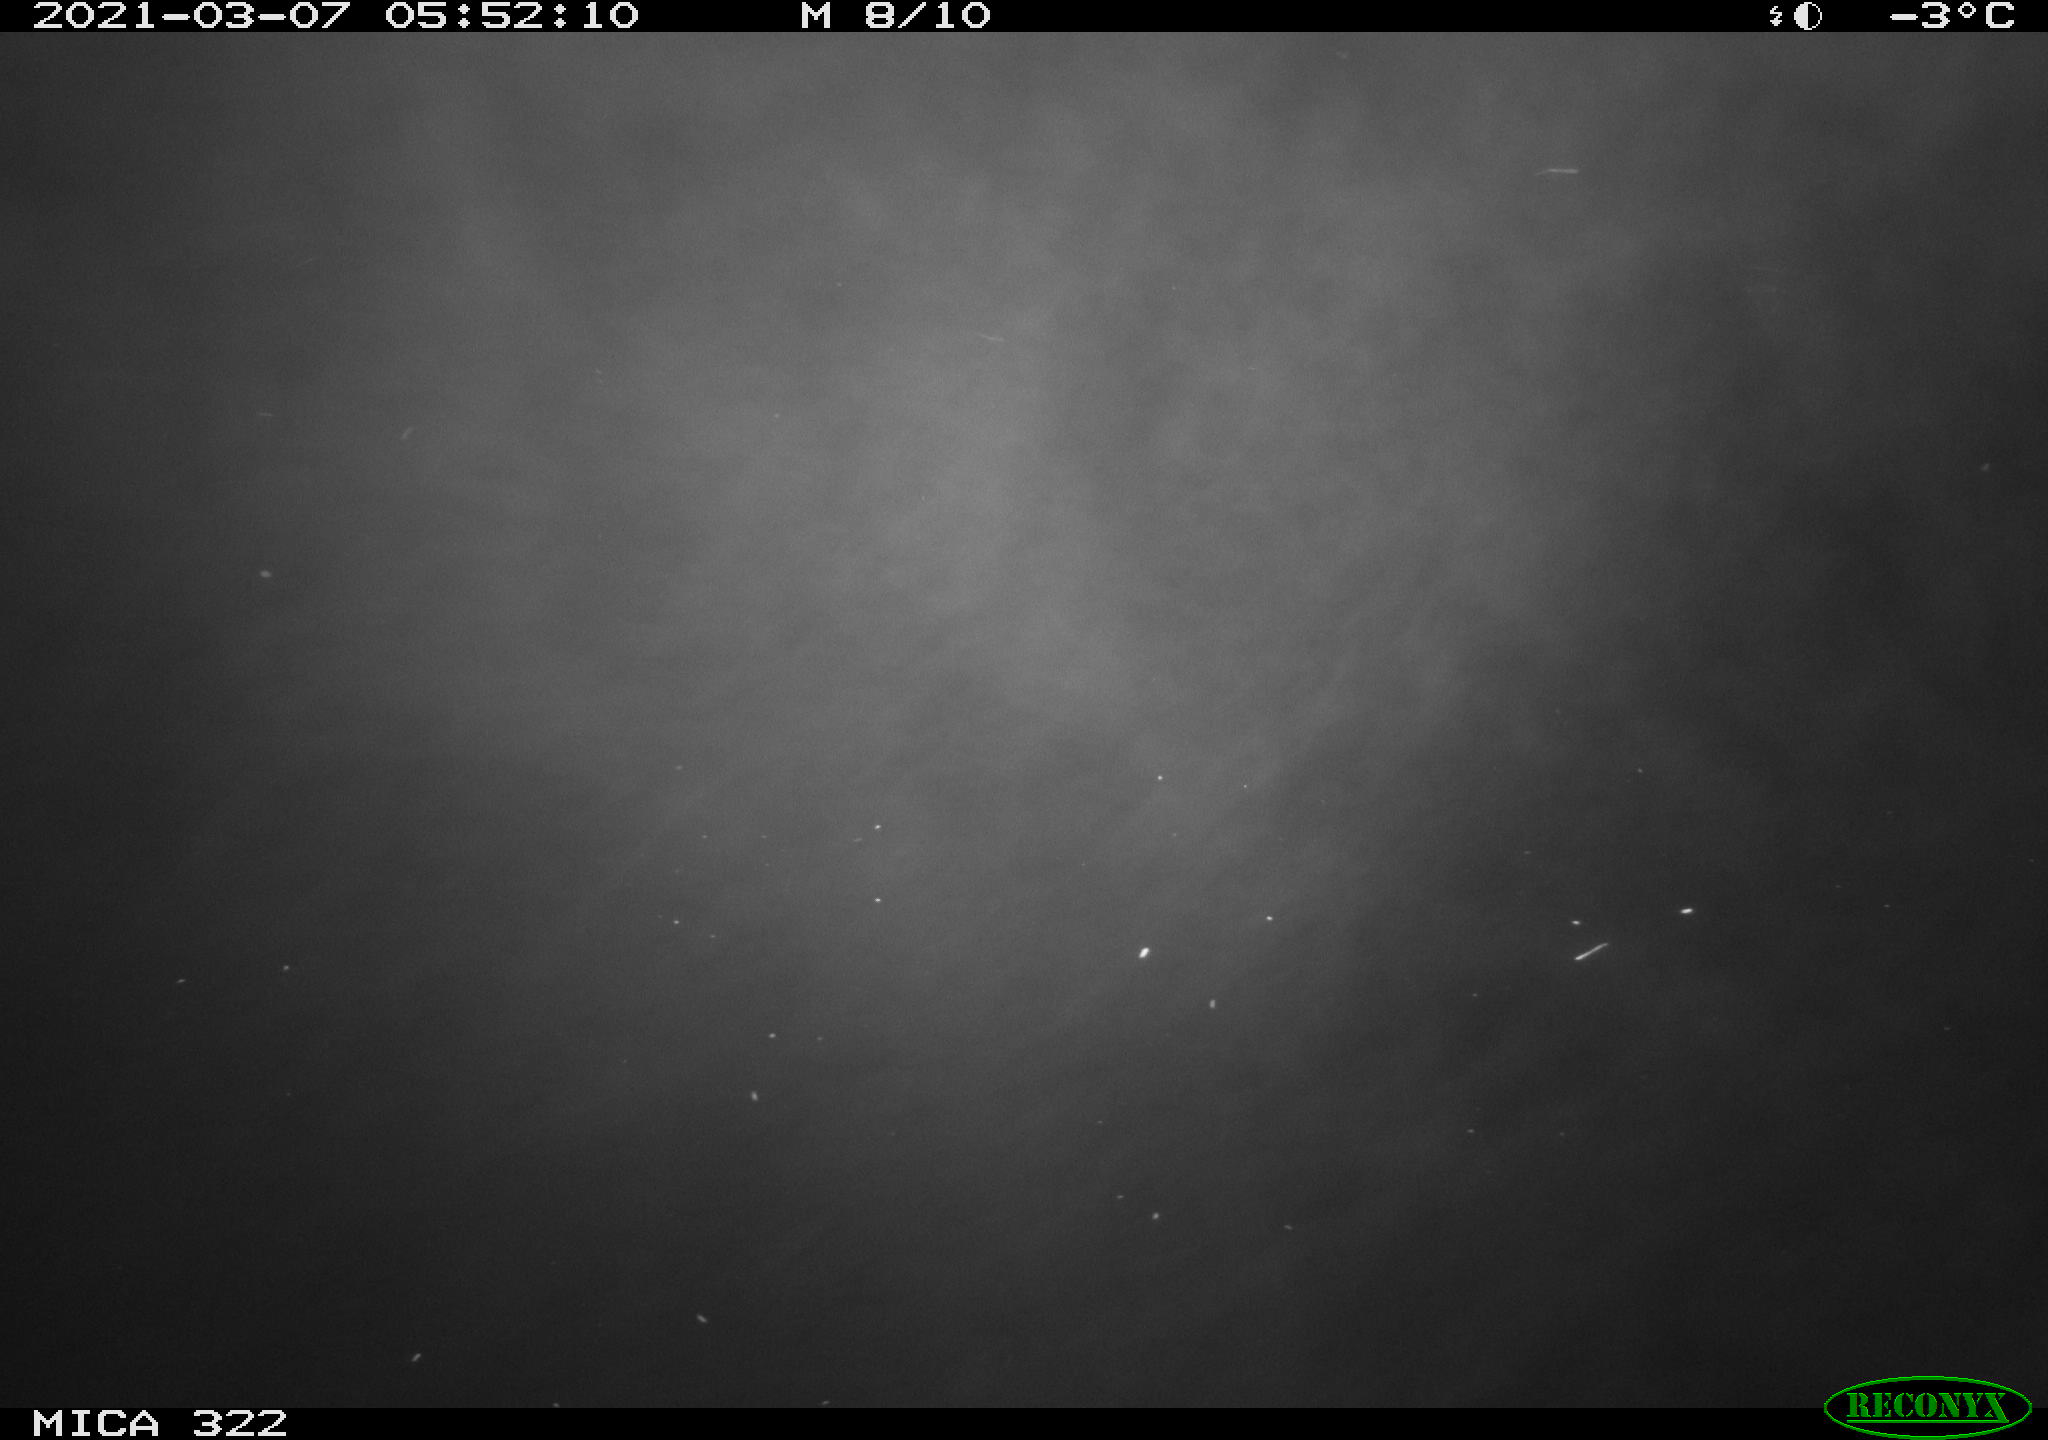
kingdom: Animalia
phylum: Chordata
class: Aves
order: Anseriformes
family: Anatidae
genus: Anas
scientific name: Anas platyrhynchos
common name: Mallard
